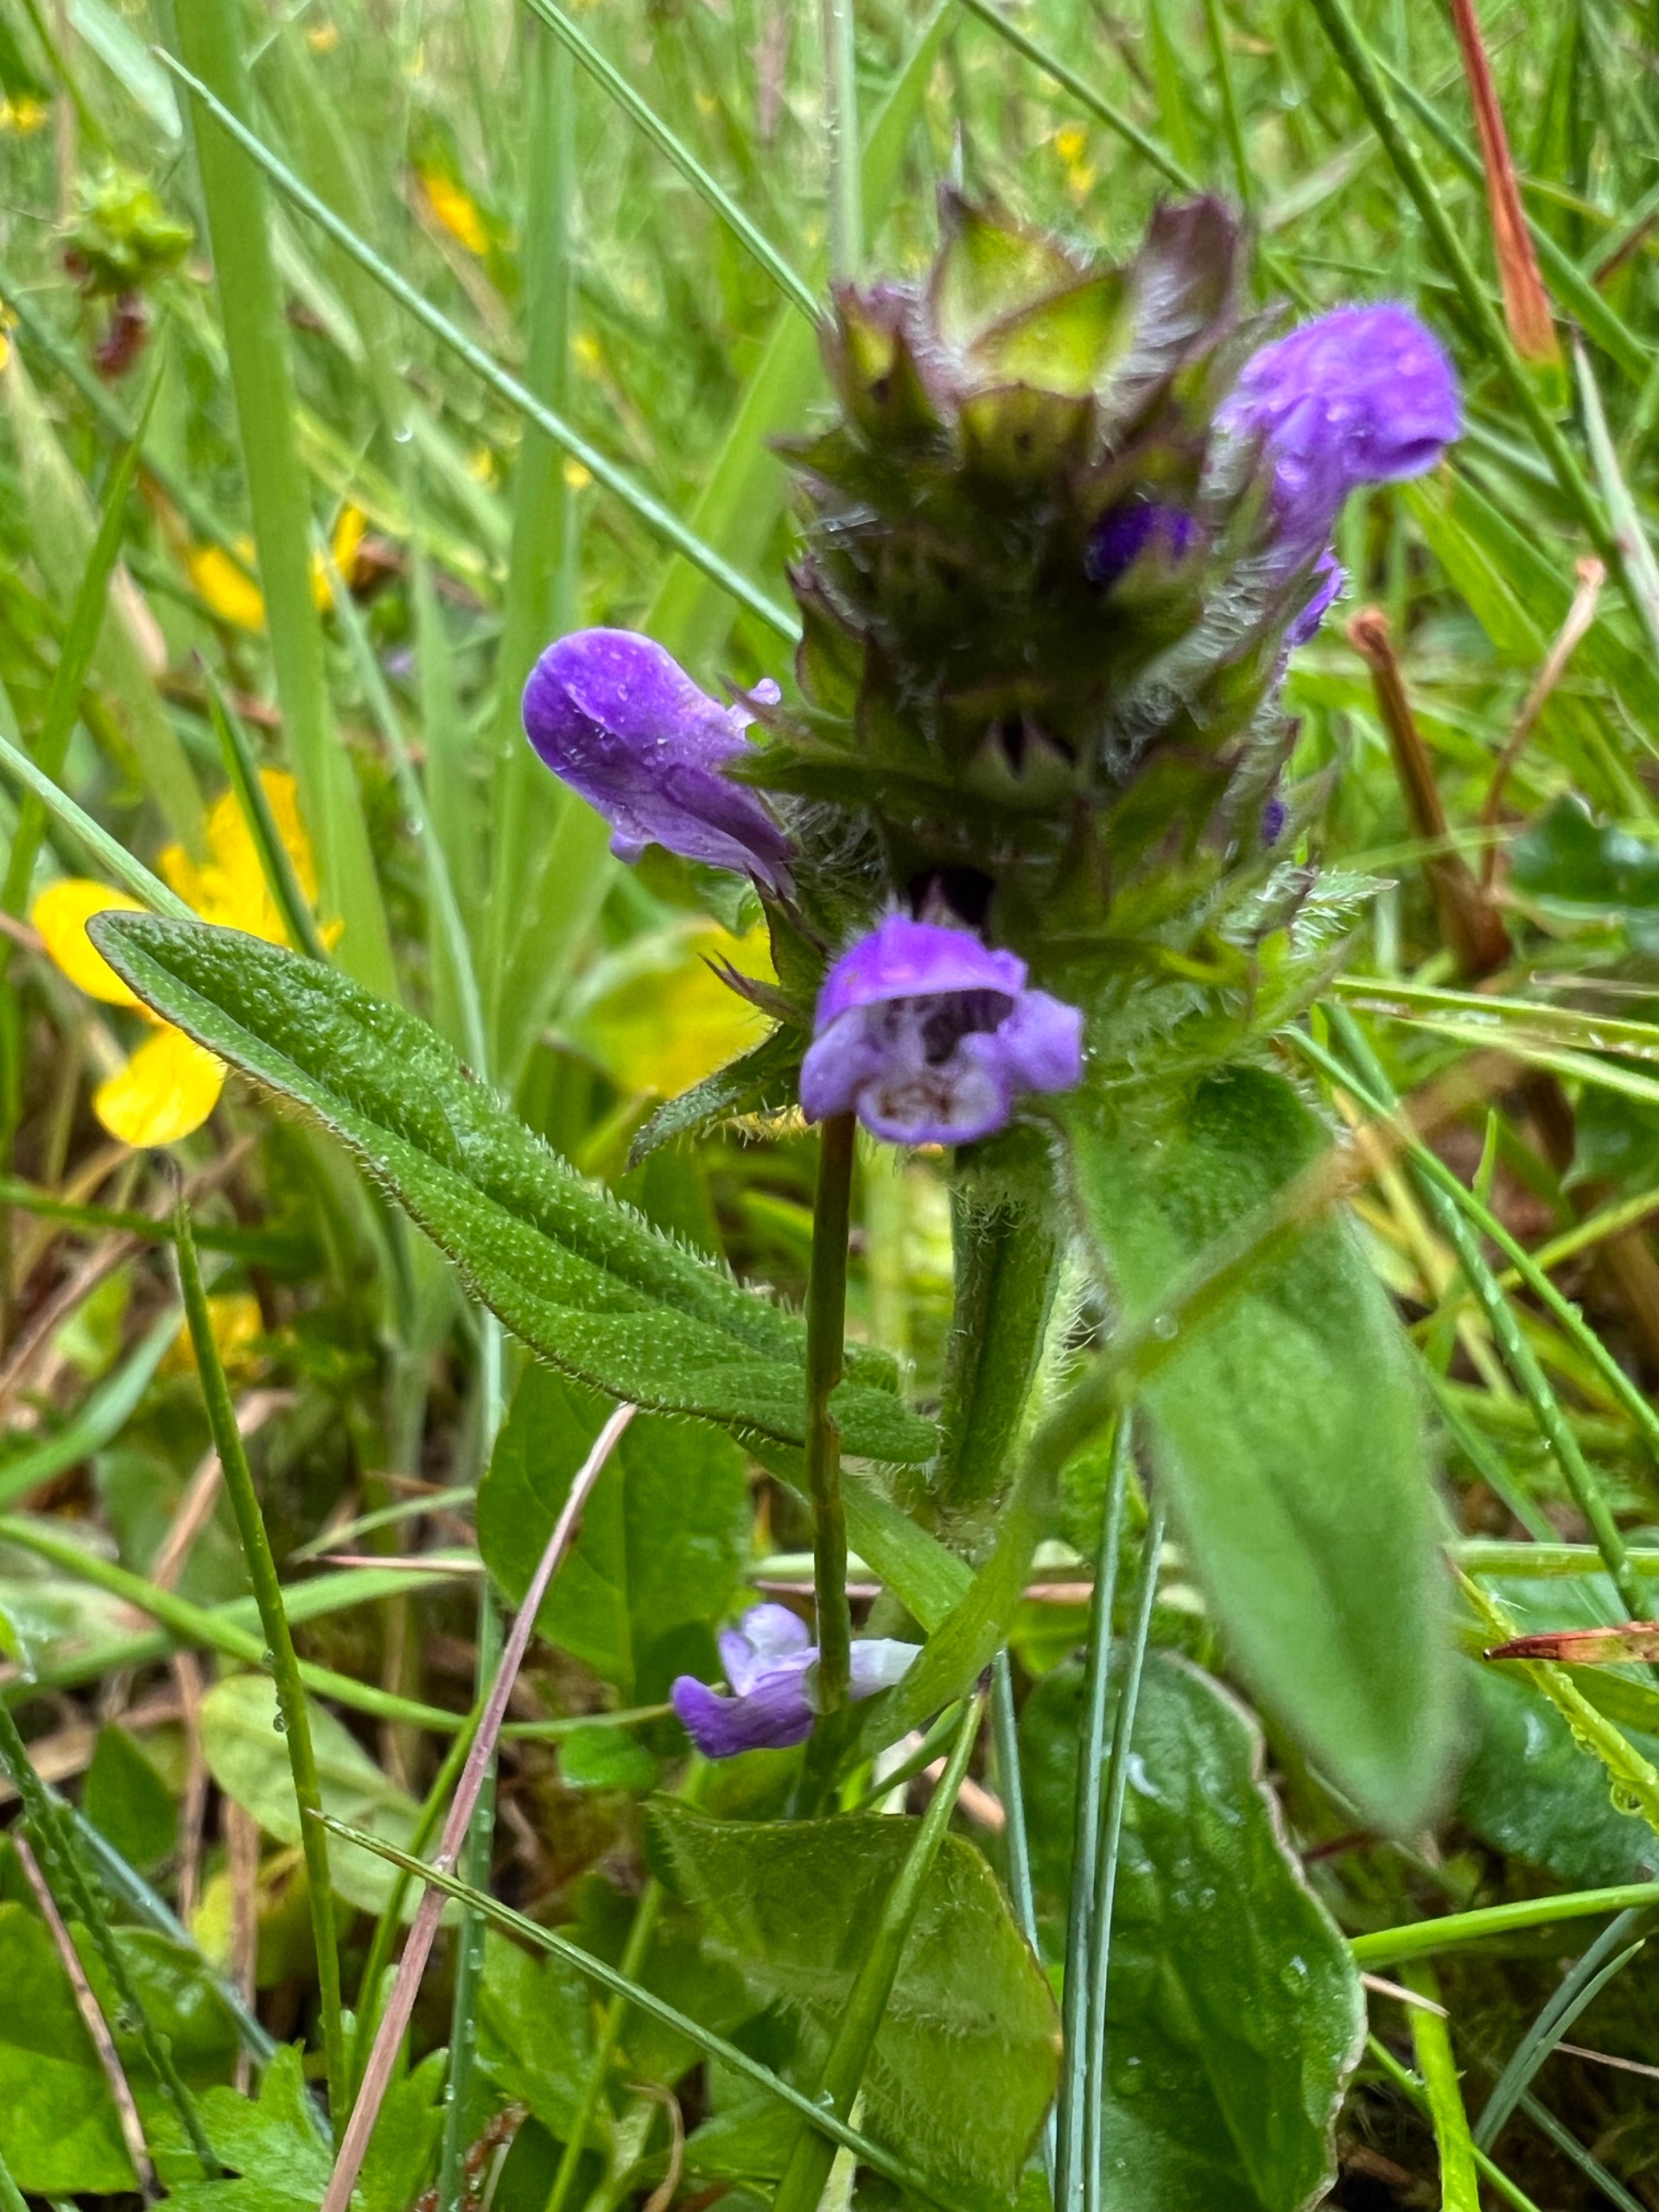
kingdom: Plantae
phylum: Tracheophyta
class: Magnoliopsida
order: Lamiales
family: Lamiaceae
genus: Prunella
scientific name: Prunella vulgaris
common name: Almindelig brunelle
